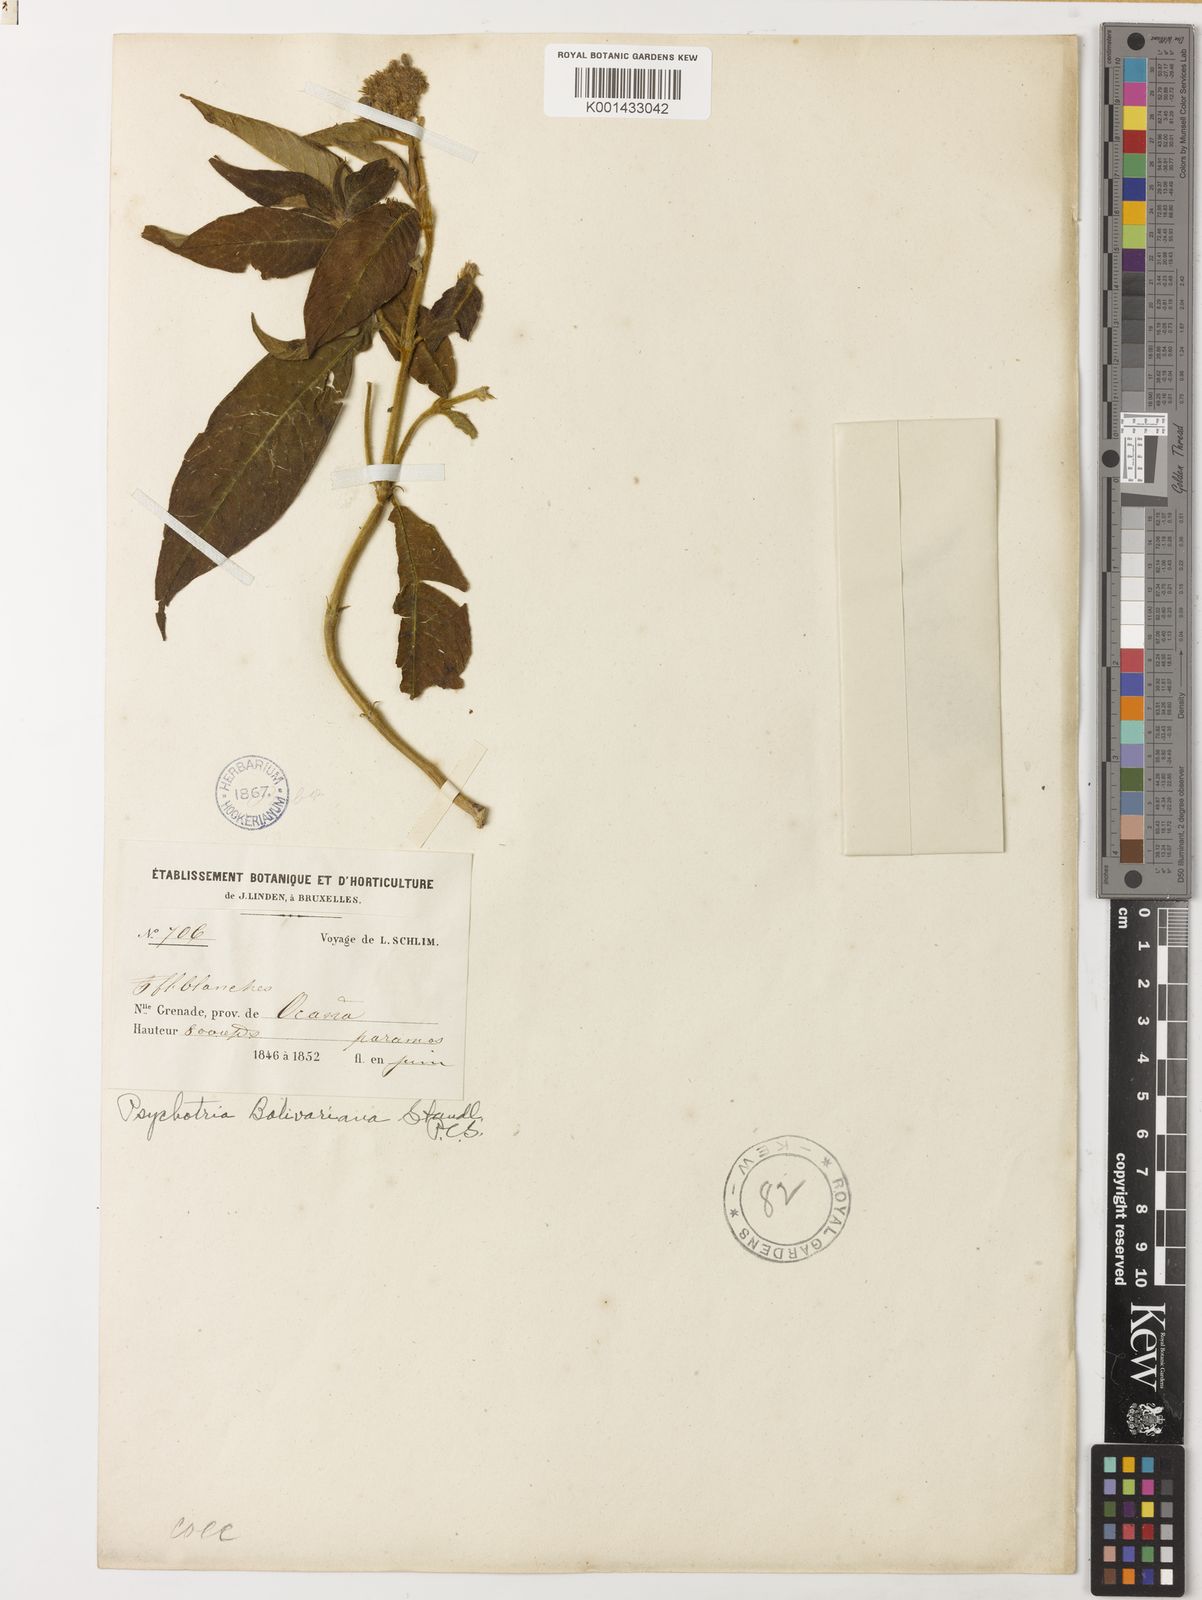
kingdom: Plantae
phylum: Tracheophyta
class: Magnoliopsida
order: Gentianales
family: Rubiaceae
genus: Palicourea
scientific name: Palicourea costularia
